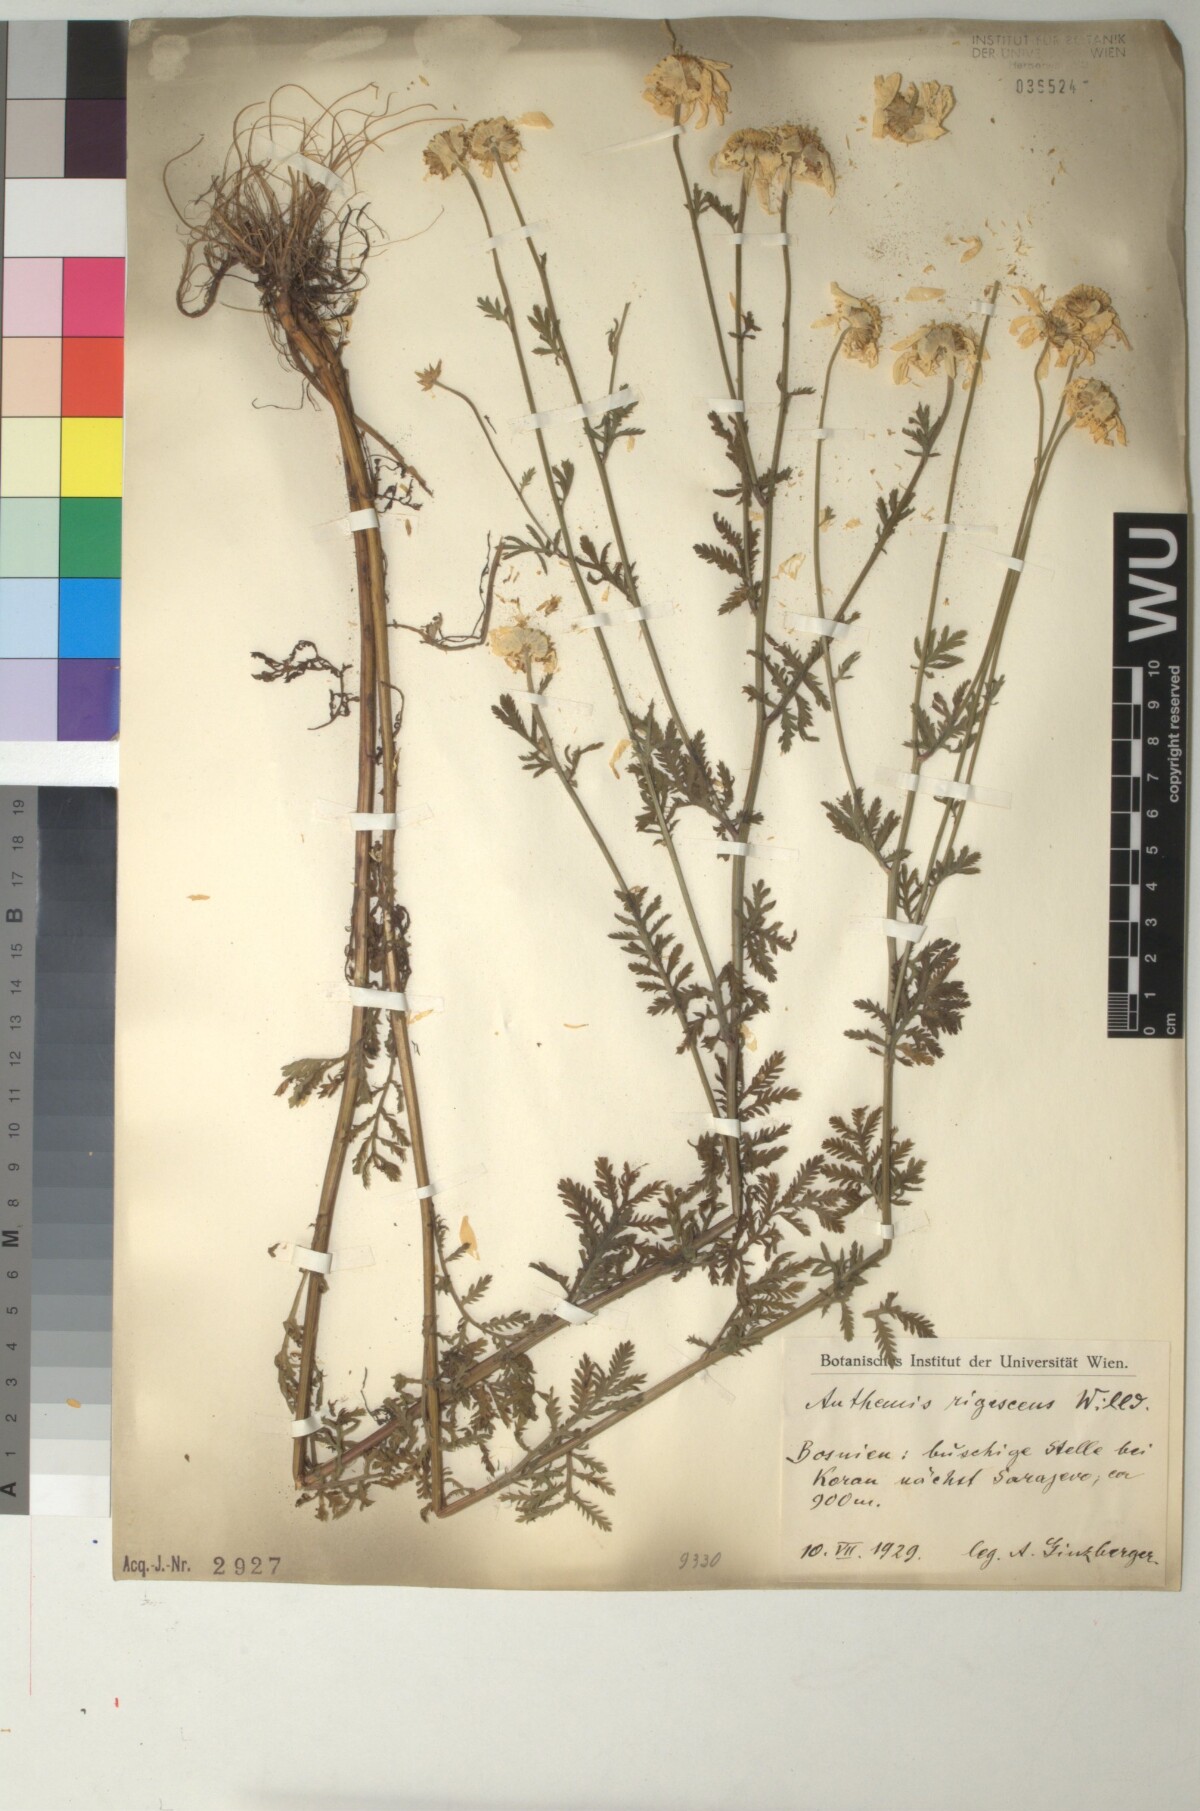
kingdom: Plantae
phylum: Tracheophyta
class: Magnoliopsida
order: Asterales
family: Asteraceae
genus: Cota
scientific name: Cota triumfetti
